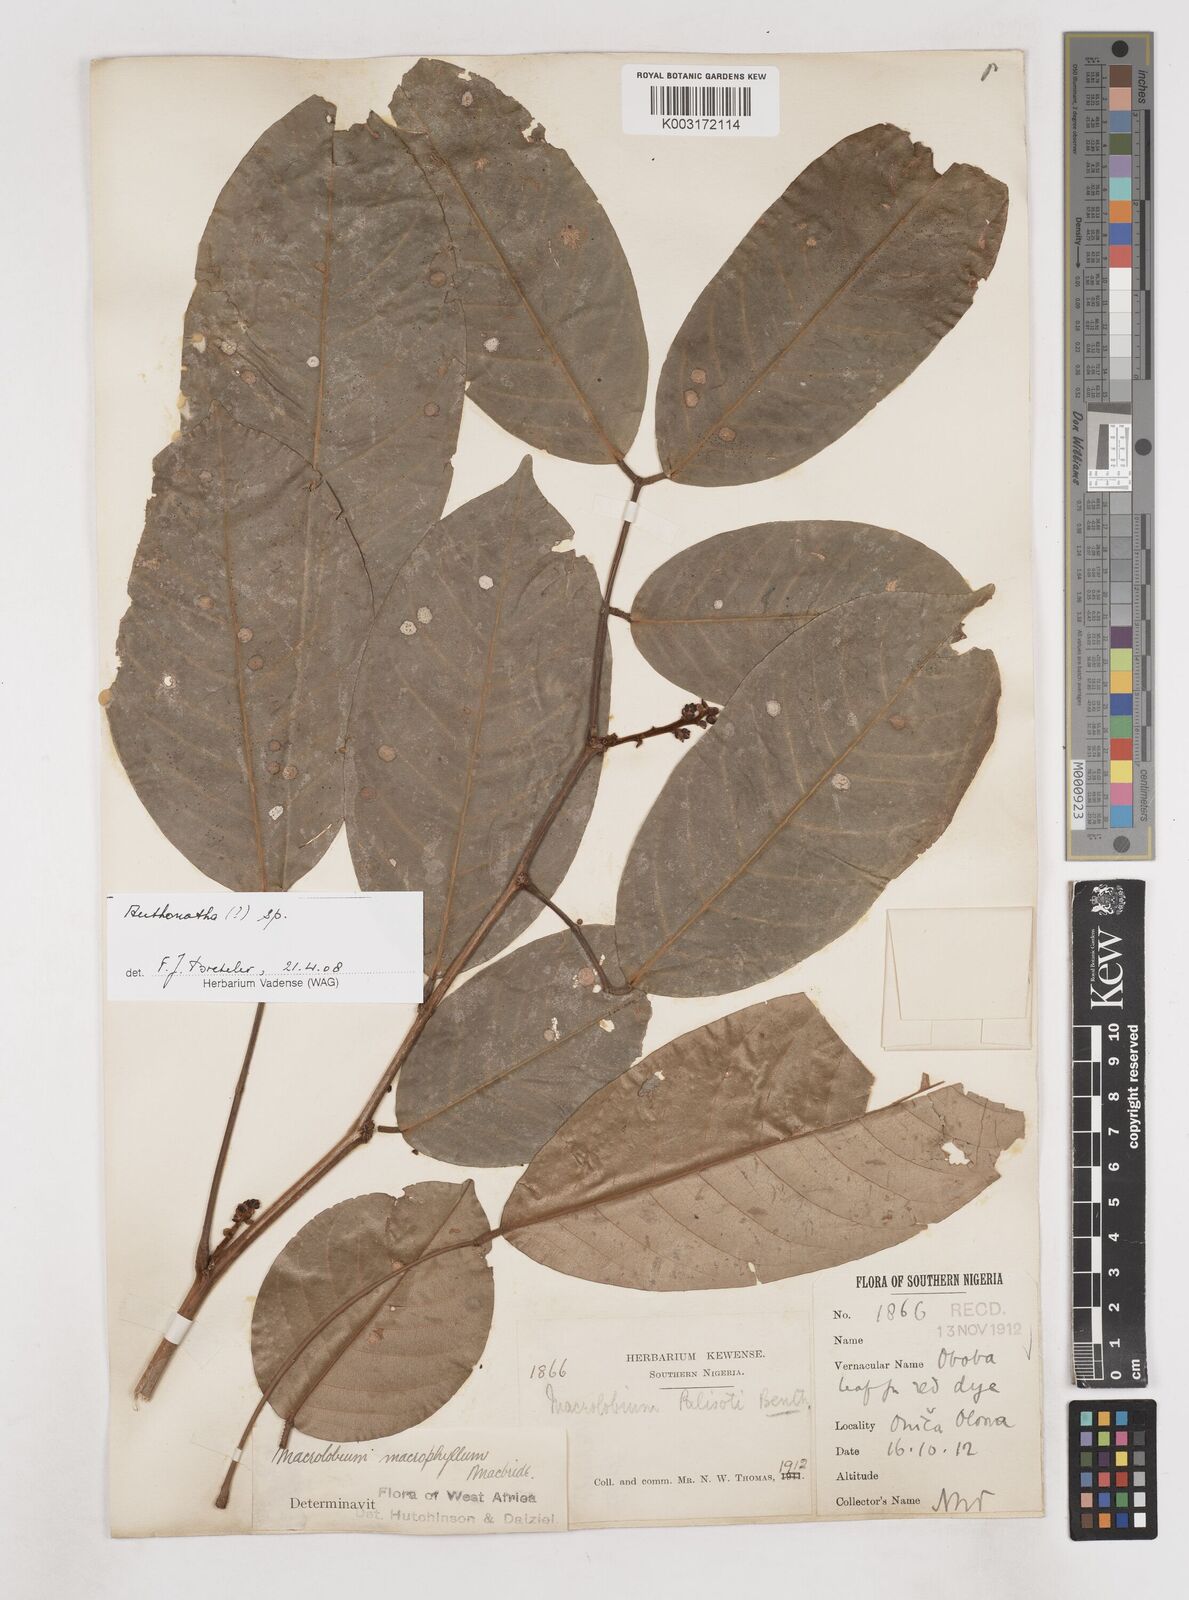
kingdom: Plantae
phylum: Tracheophyta
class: Magnoliopsida
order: Fabales
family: Fabaceae
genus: Anthonotha
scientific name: Anthonotha
